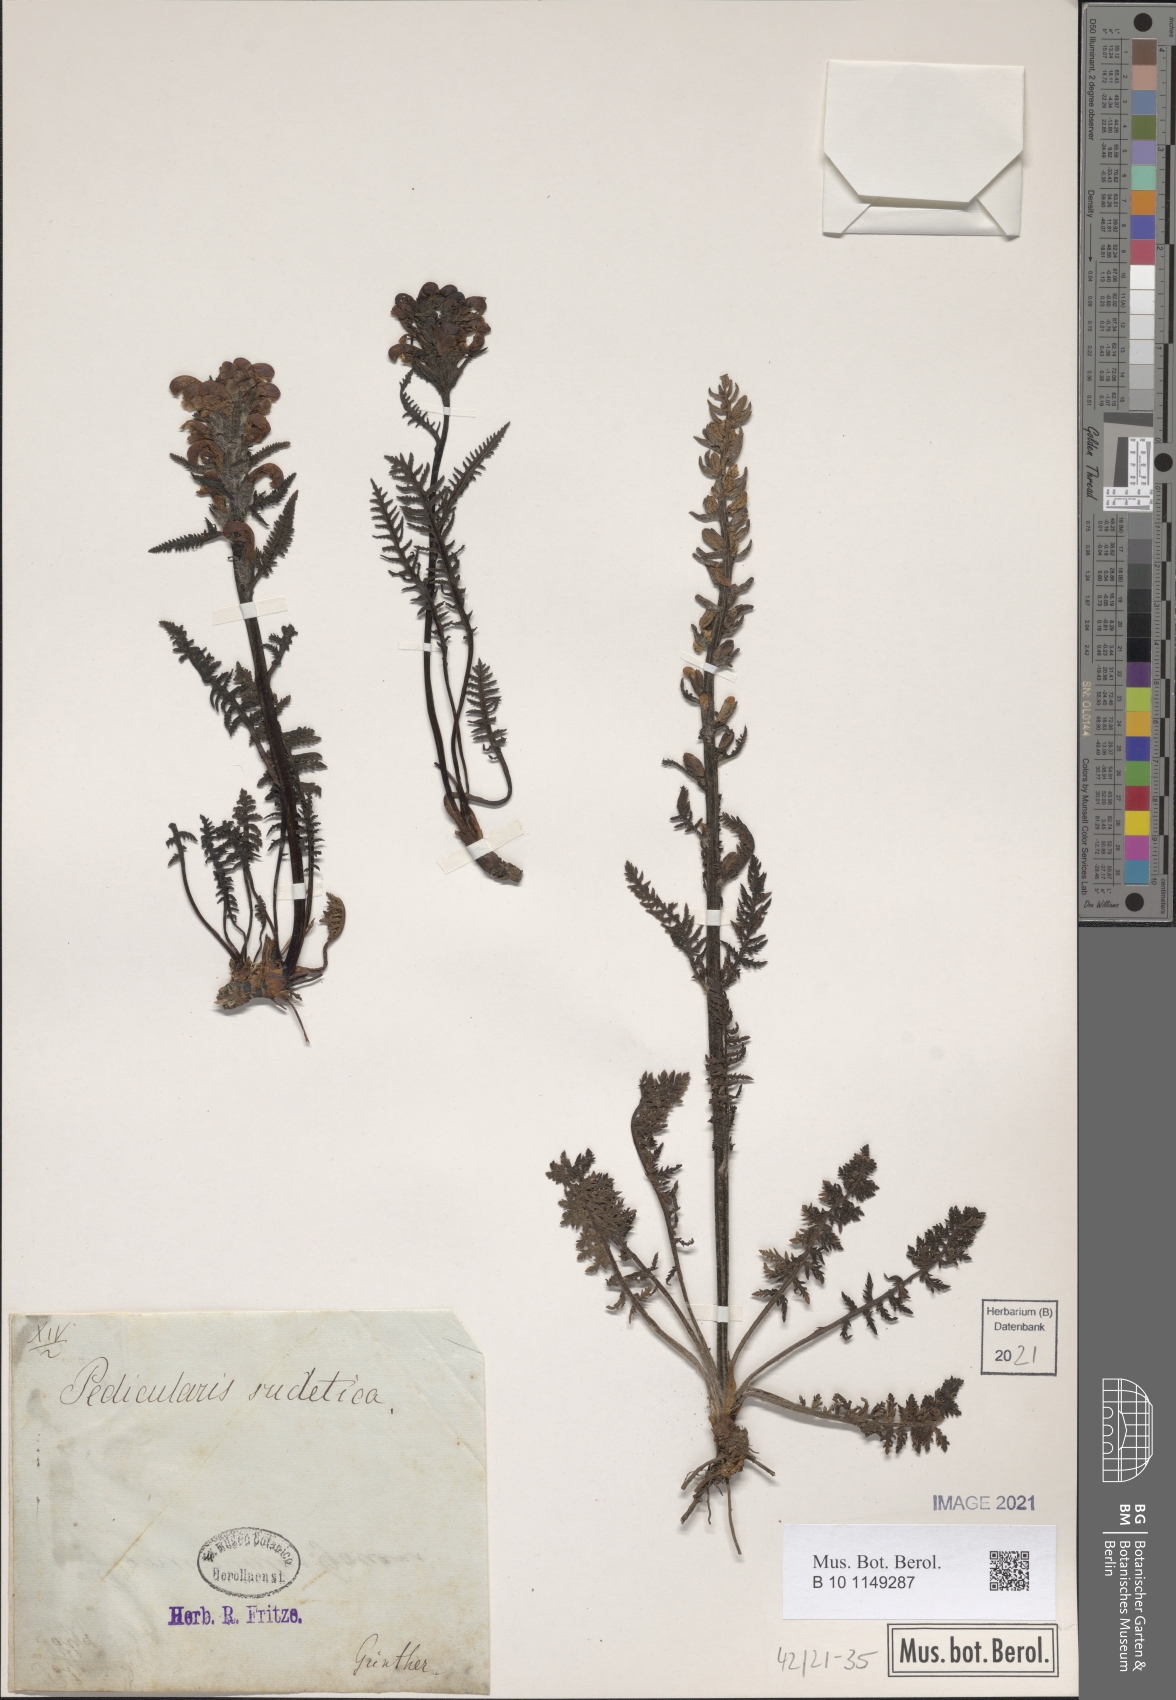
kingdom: Plantae
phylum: Tracheophyta
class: Magnoliopsida
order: Lamiales
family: Orobanchaceae
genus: Pedicularis
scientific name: Pedicularis sudetica
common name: Sudeten lousewort
